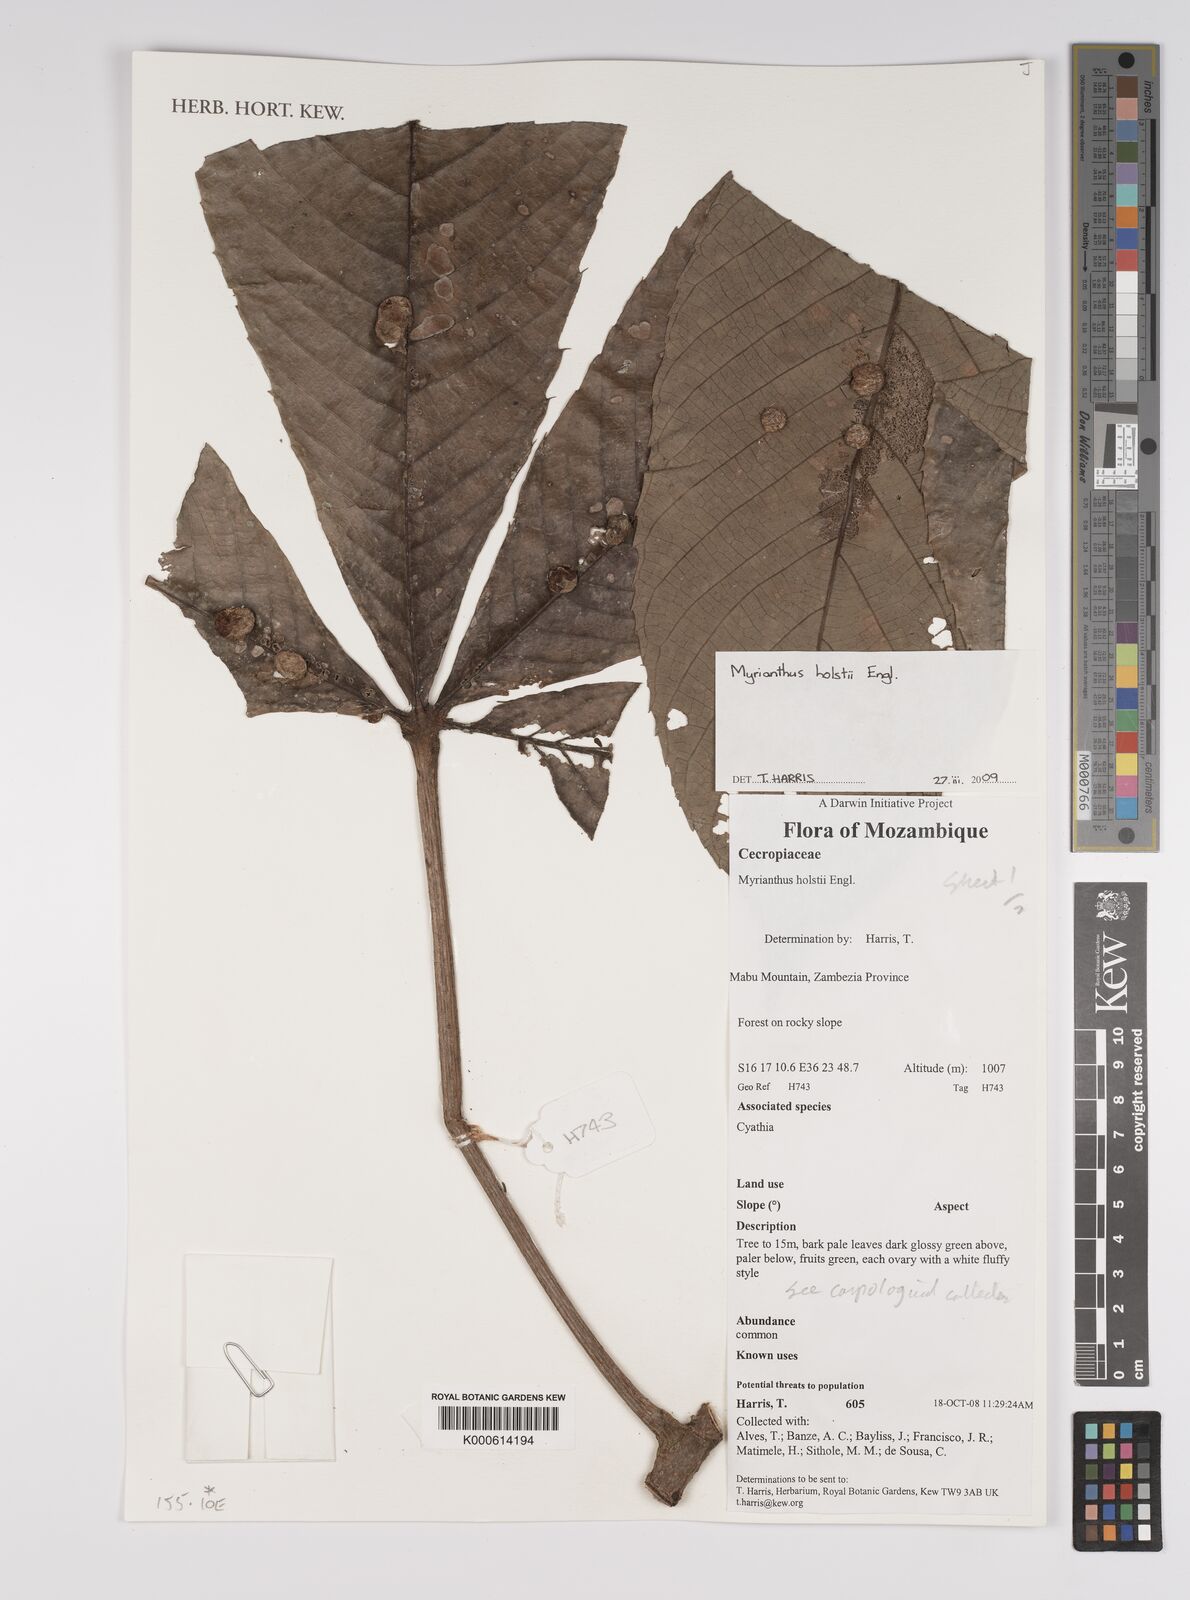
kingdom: Plantae
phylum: Tracheophyta
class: Magnoliopsida
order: Rosales
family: Urticaceae
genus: Myrianthus
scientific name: Myrianthus holstii
